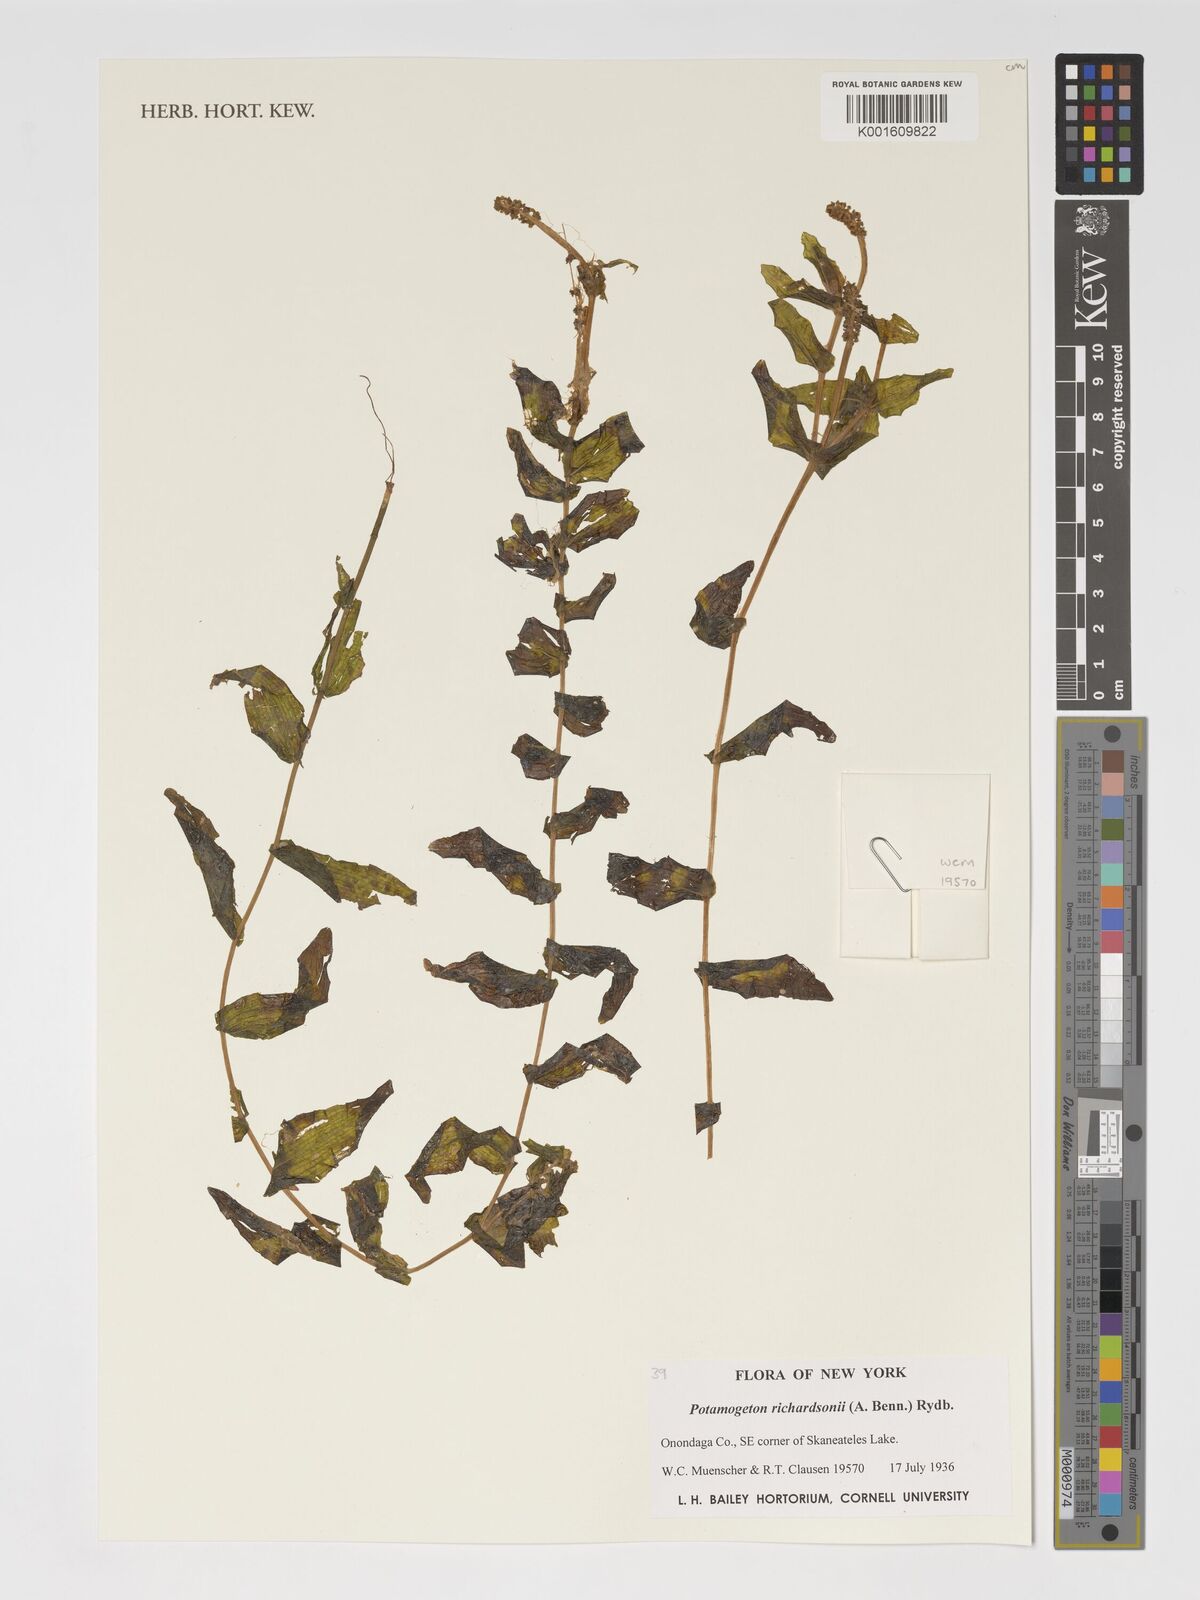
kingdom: Plantae
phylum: Tracheophyta
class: Liliopsida
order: Alismatales
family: Potamogetonaceae
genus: Potamogeton
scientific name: Potamogeton richardsonii
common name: Richardson's pondweed
